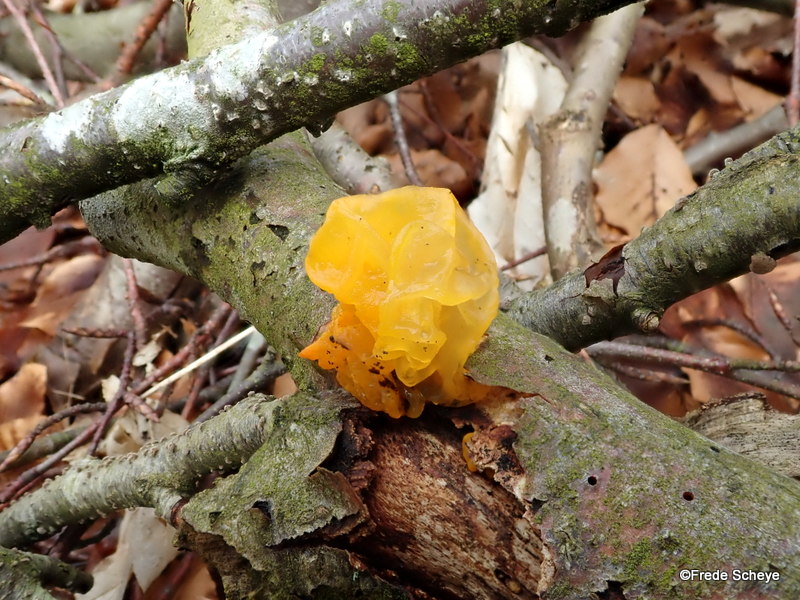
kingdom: Fungi
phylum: Basidiomycota
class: Tremellomycetes
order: Tremellales
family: Tremellaceae
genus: Tremella
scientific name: Tremella mesenterica
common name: gul bævresvamp
